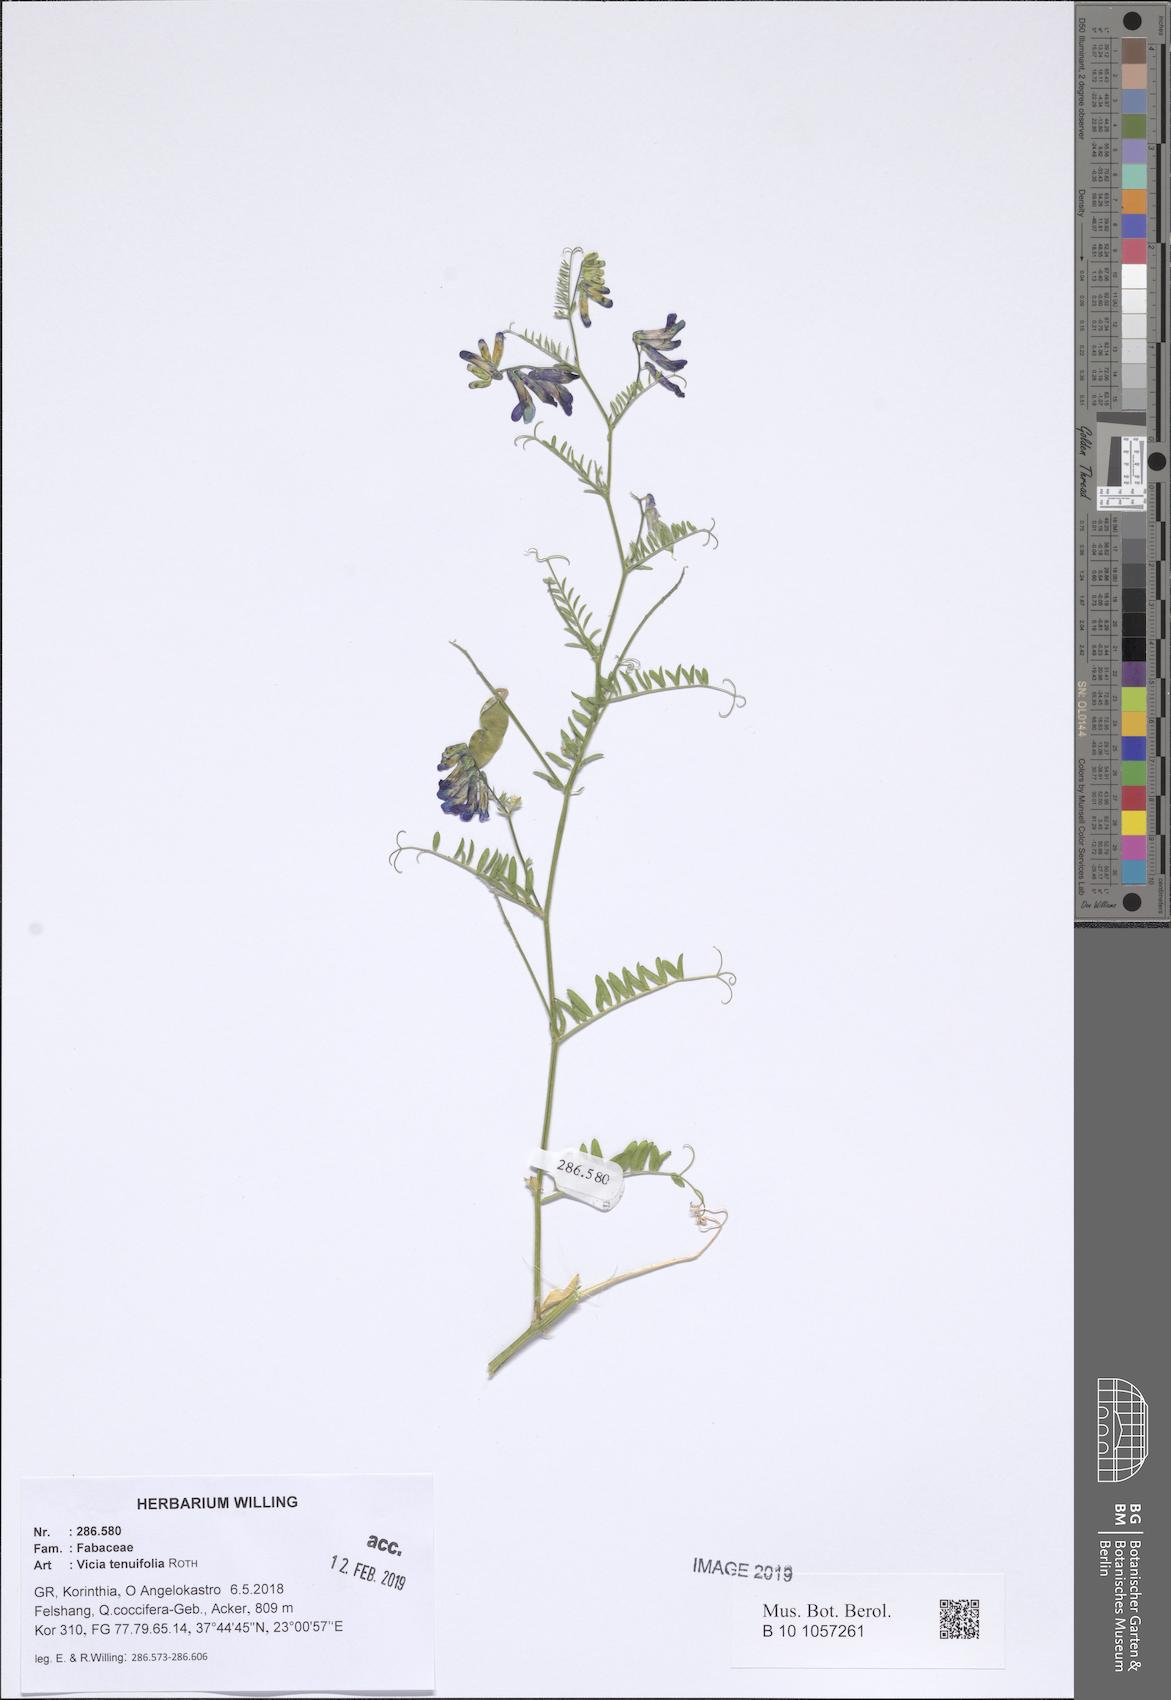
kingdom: Plantae
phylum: Tracheophyta
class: Magnoliopsida
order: Fabales
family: Fabaceae
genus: Vicia
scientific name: Vicia tenuifolia
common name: Fine-leaved vetch
